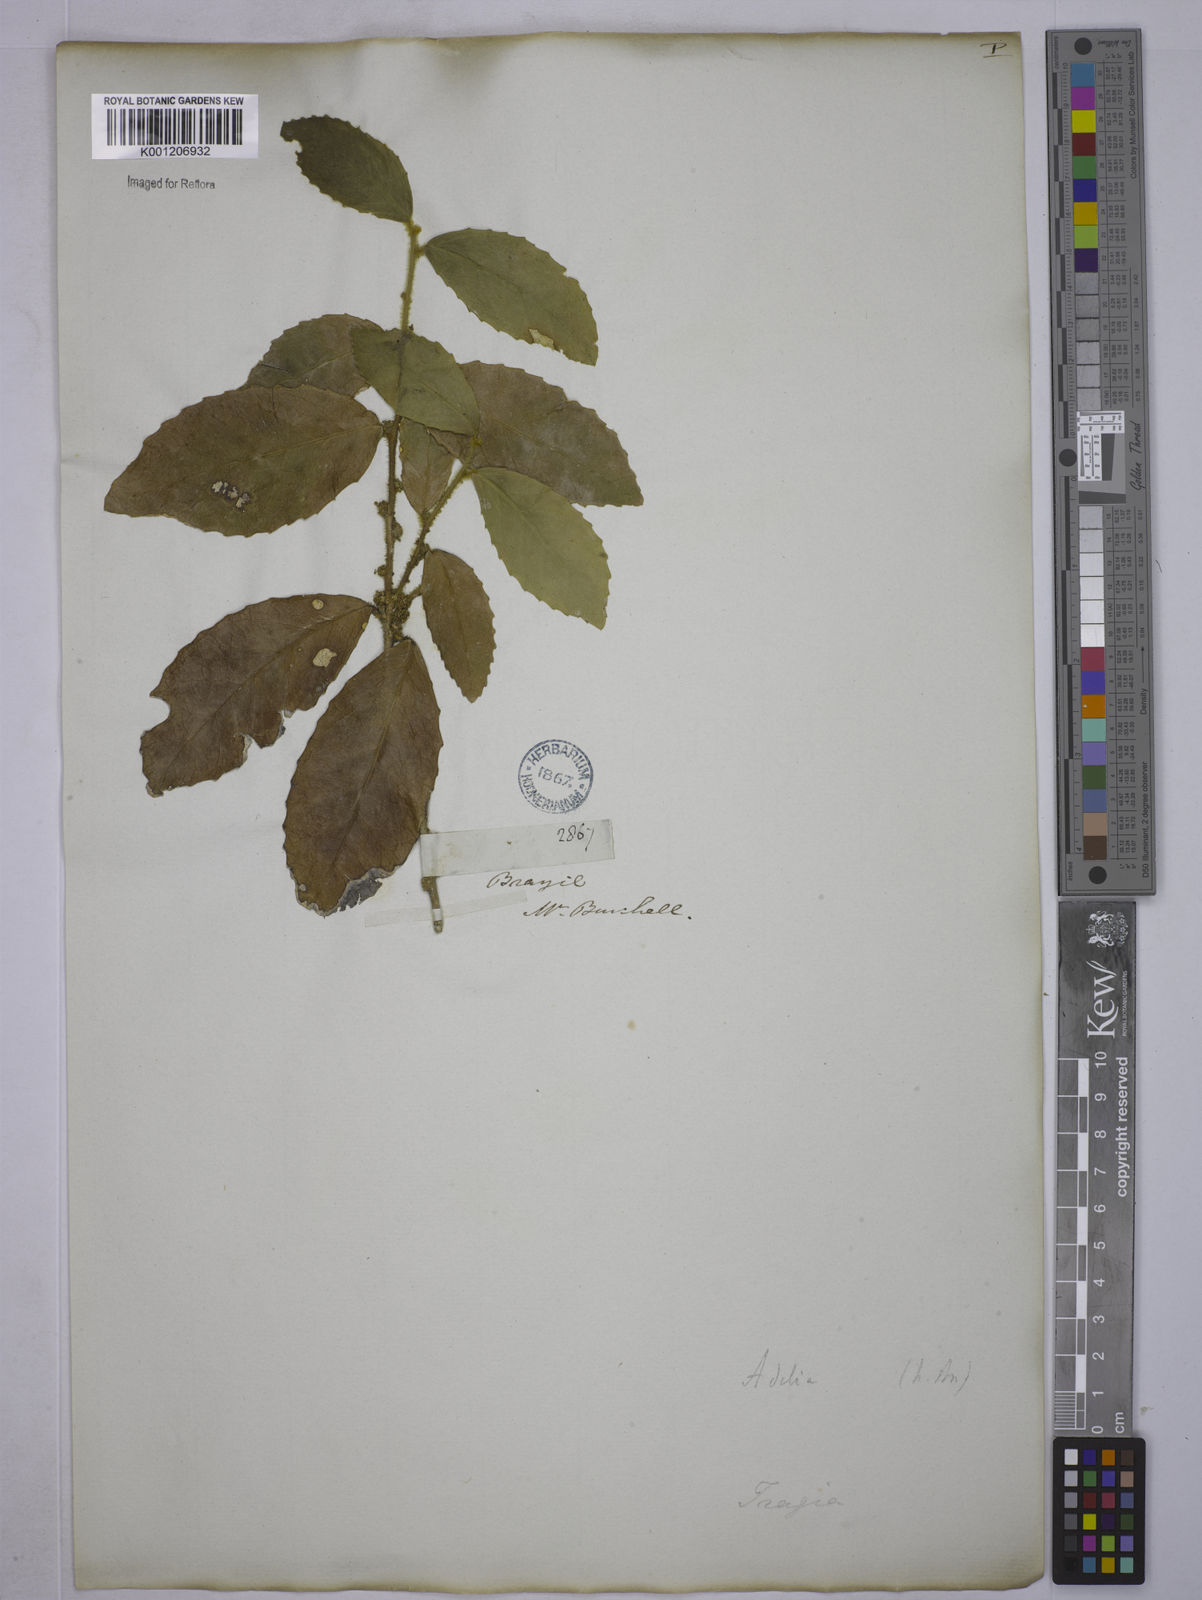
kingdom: Plantae
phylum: Tracheophyta
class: Magnoliopsida
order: Malpighiales
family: Euphorbiaceae
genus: Bernardia
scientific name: Bernardia axillaris
